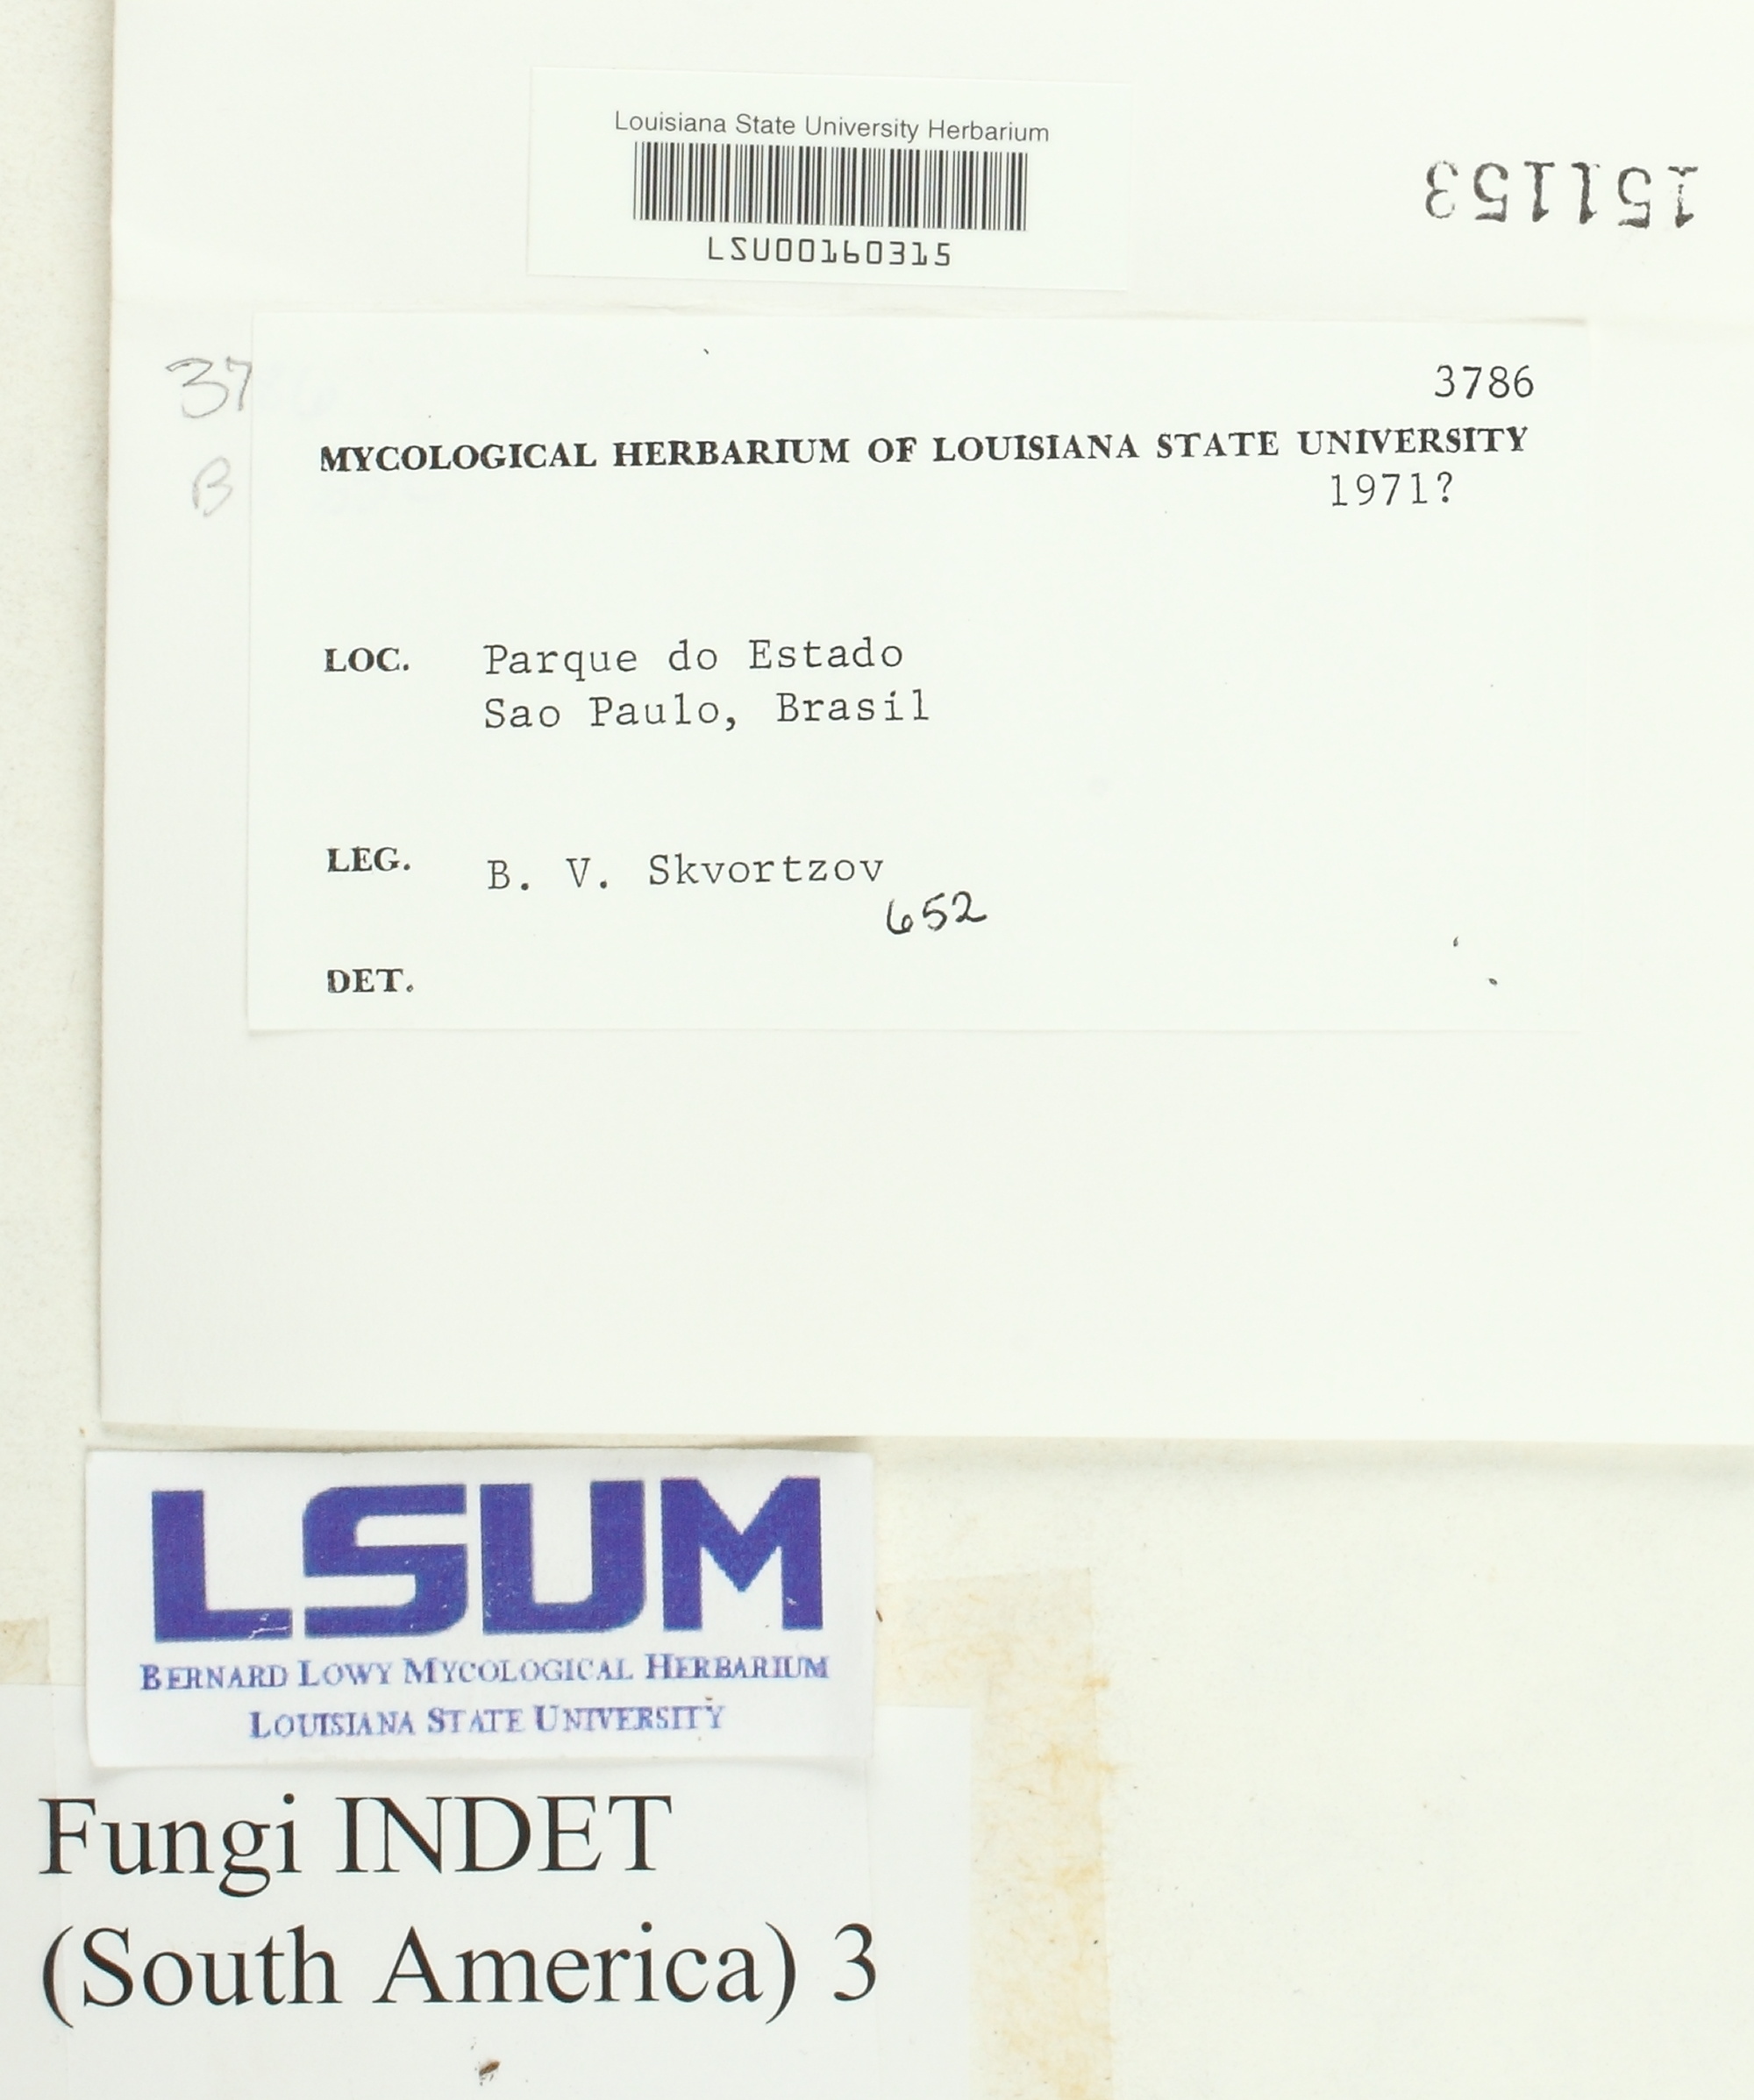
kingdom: Fungi
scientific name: Fungi
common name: Fungi
